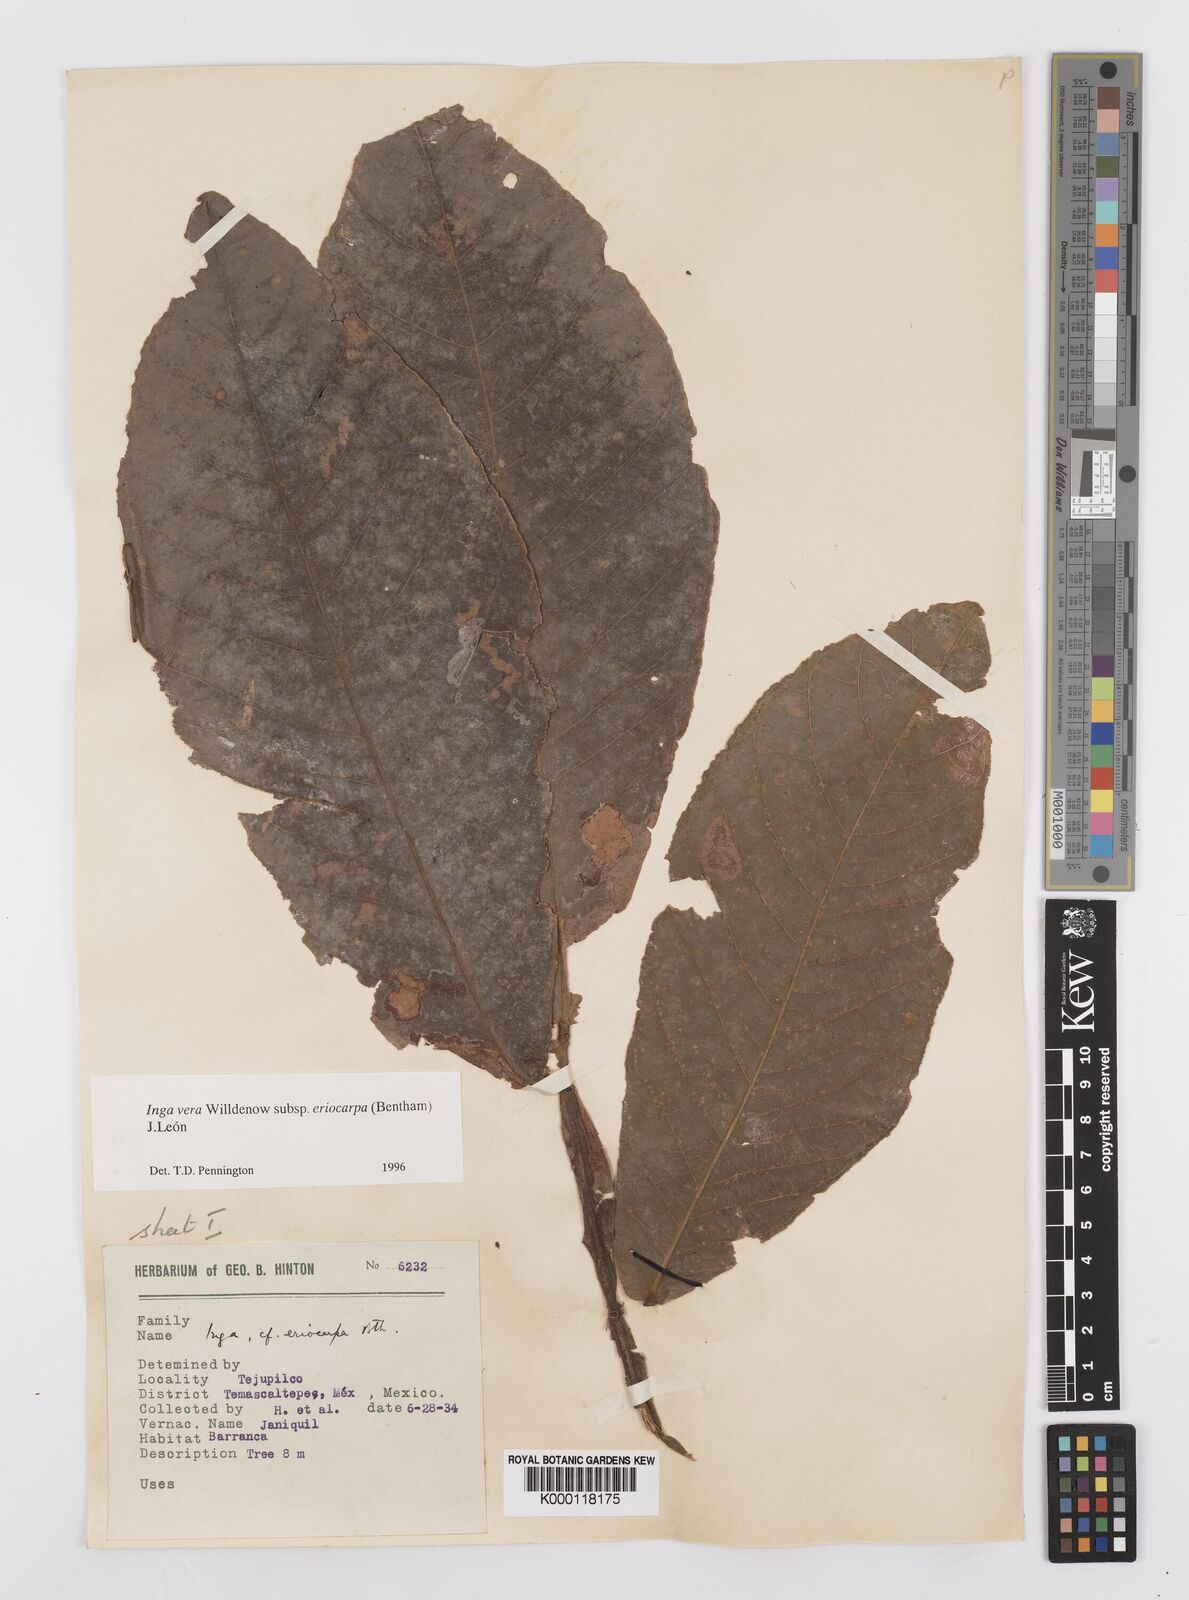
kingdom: Plantae
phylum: Tracheophyta
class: Magnoliopsida
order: Fabales
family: Fabaceae
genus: Inga
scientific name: Inga vera
